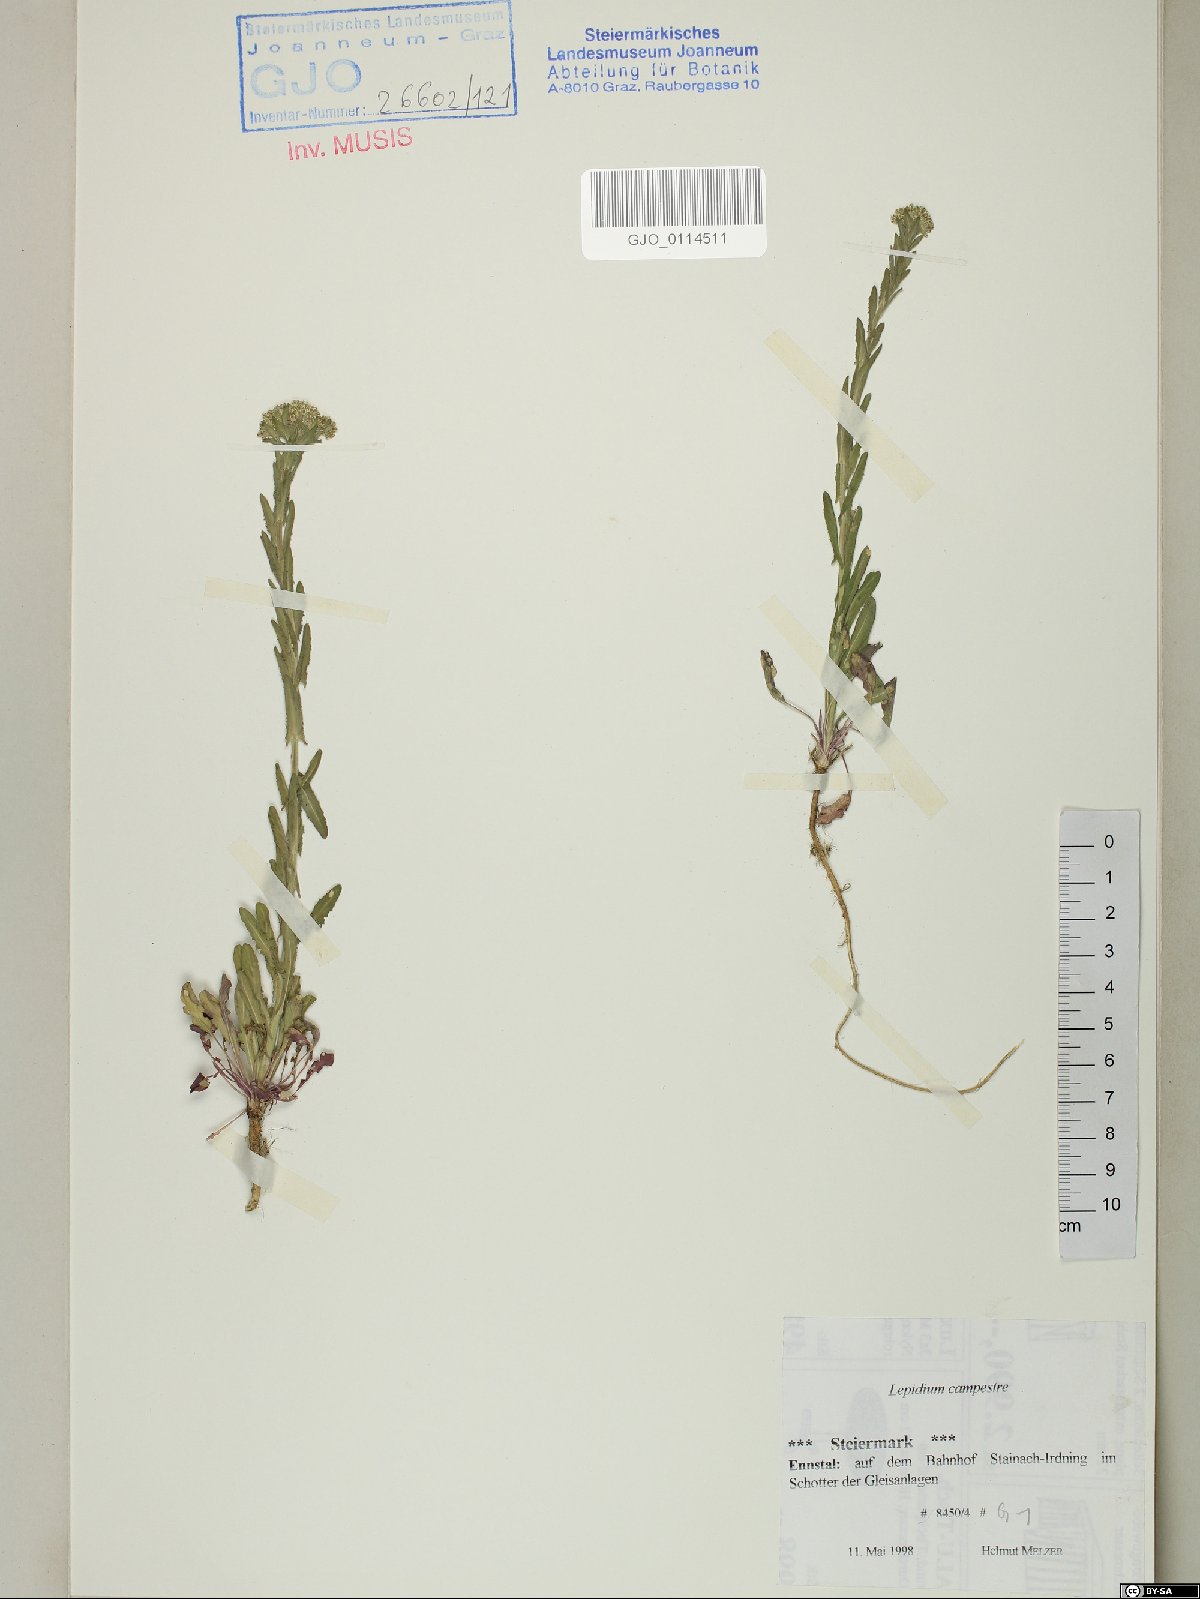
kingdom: Plantae
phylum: Tracheophyta
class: Magnoliopsida
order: Brassicales
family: Brassicaceae
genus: Lepidium
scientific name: Lepidium campestre
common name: Field pepperwort
